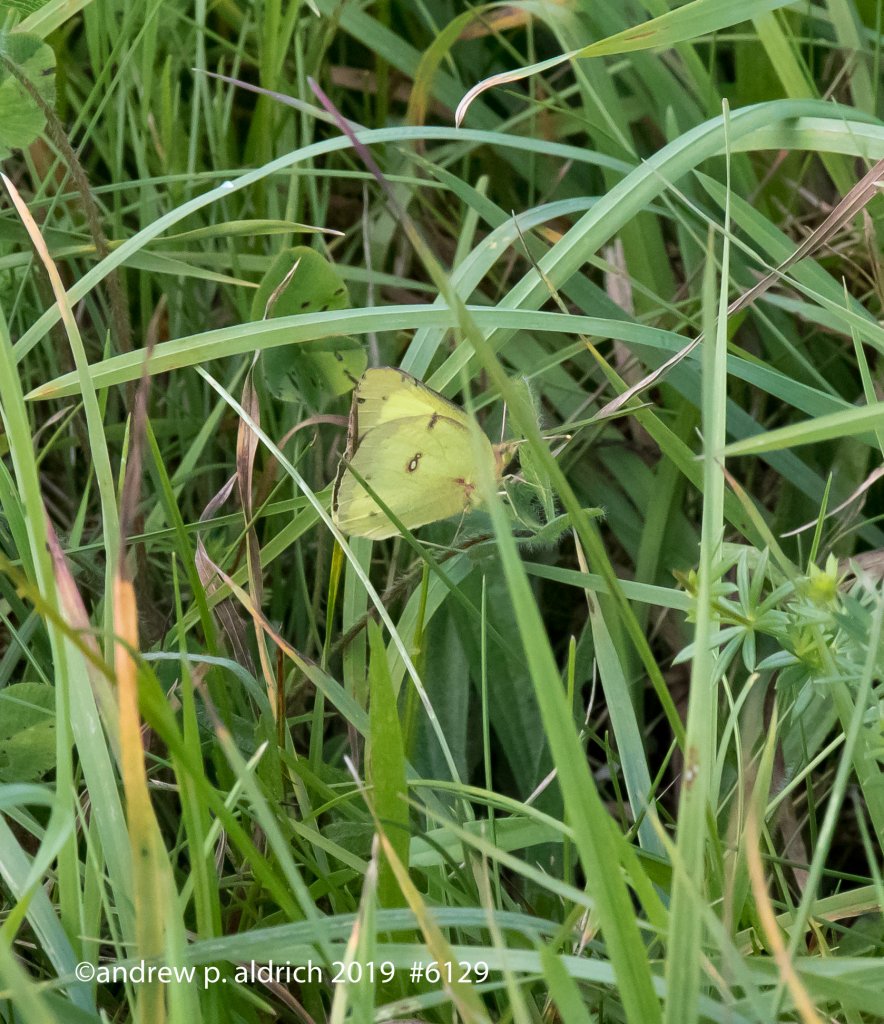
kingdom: Animalia
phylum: Arthropoda
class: Insecta
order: Lepidoptera
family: Pieridae
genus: Colias
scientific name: Colias eurytheme
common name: Orange Sulphur
